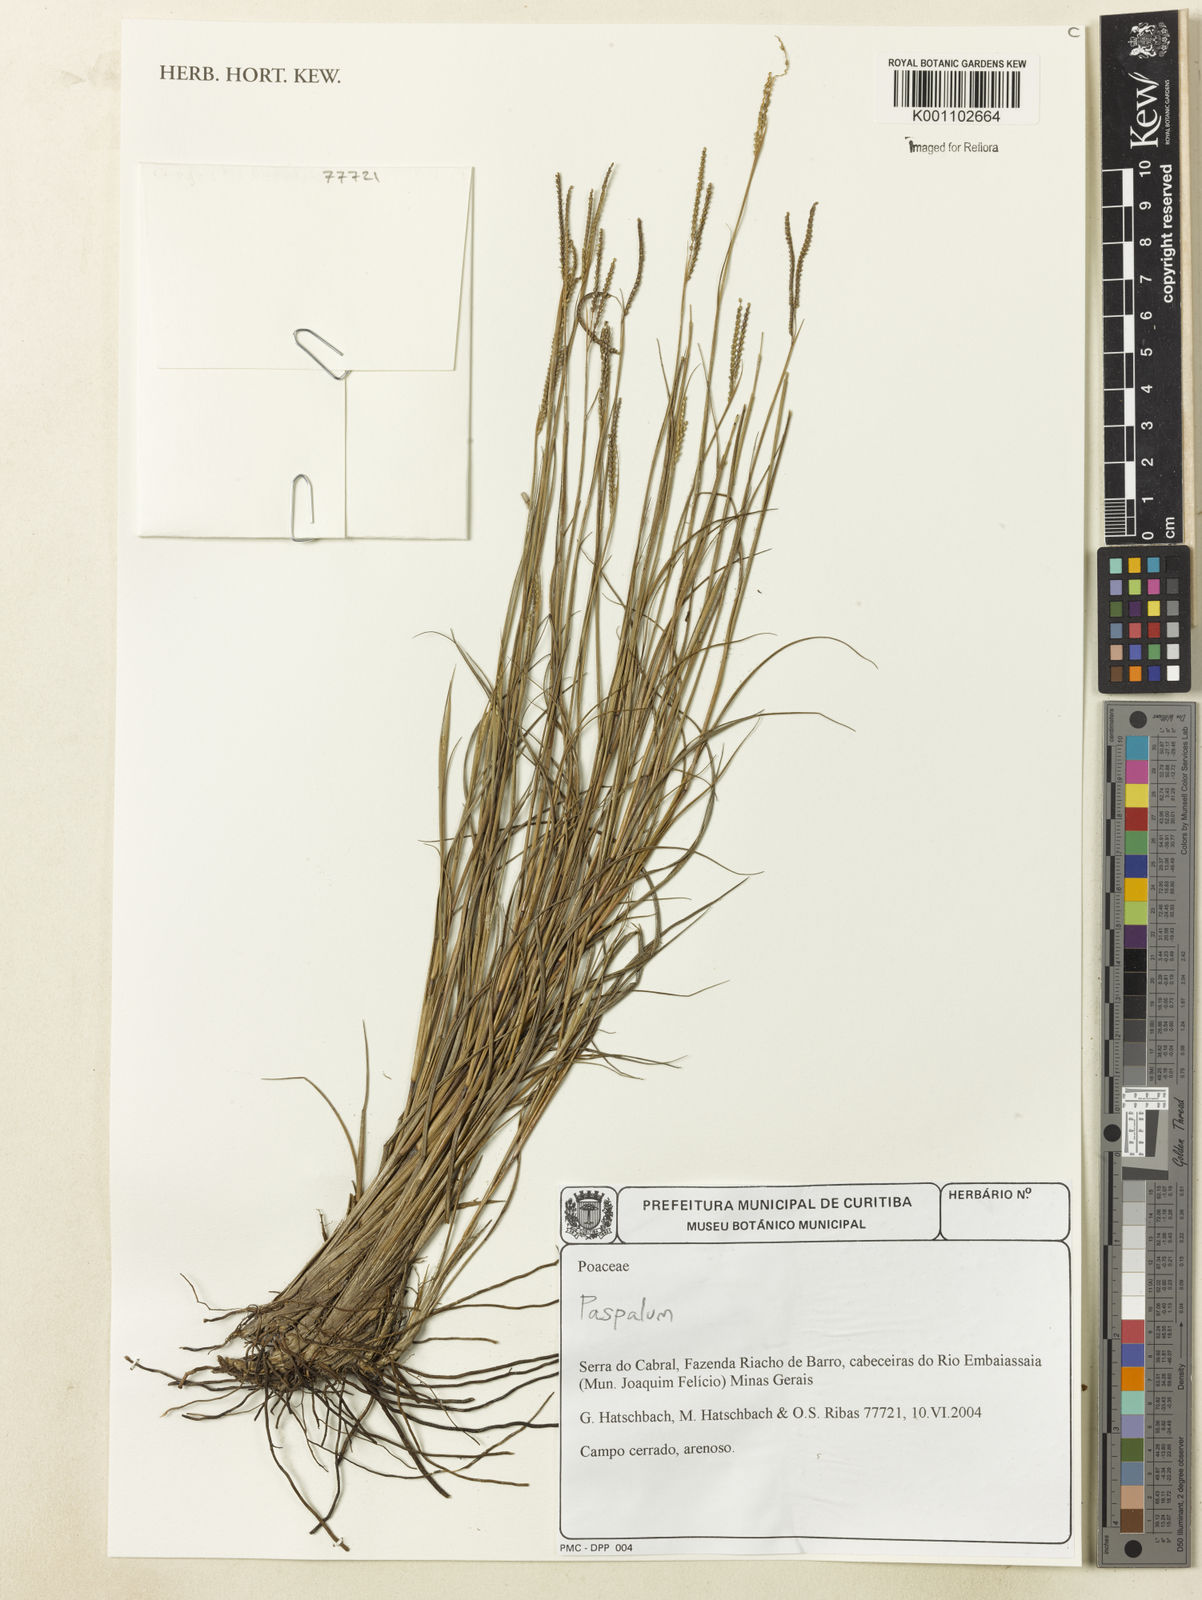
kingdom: Plantae
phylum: Tracheophyta
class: Liliopsida
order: Poales
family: Poaceae
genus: Paspalum
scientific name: Paspalum
